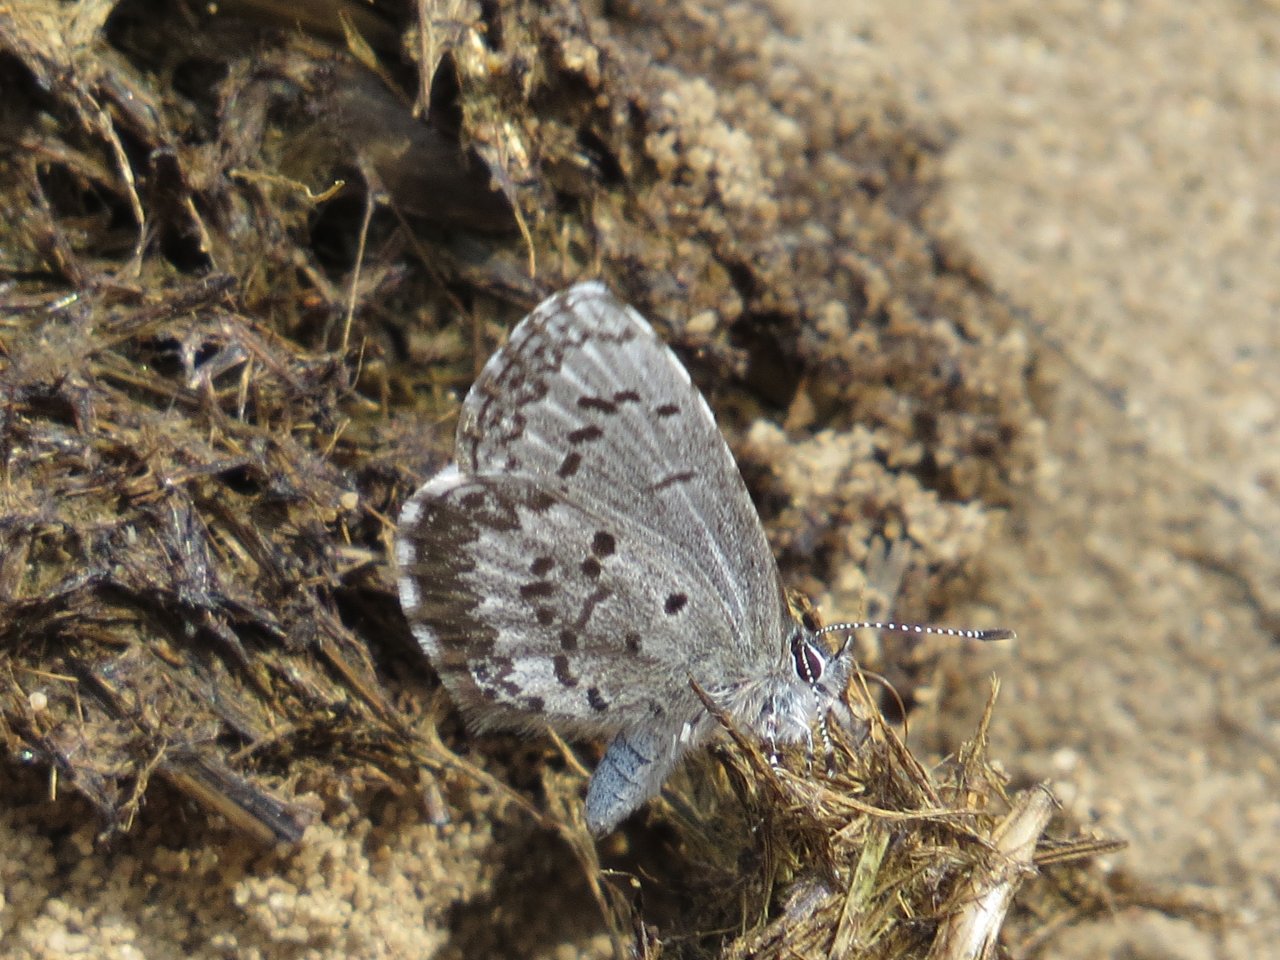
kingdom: Animalia
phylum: Arthropoda
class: Insecta
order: Lepidoptera
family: Lycaenidae
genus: Celastrina
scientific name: Celastrina lucia
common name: Northern Spring Azure
